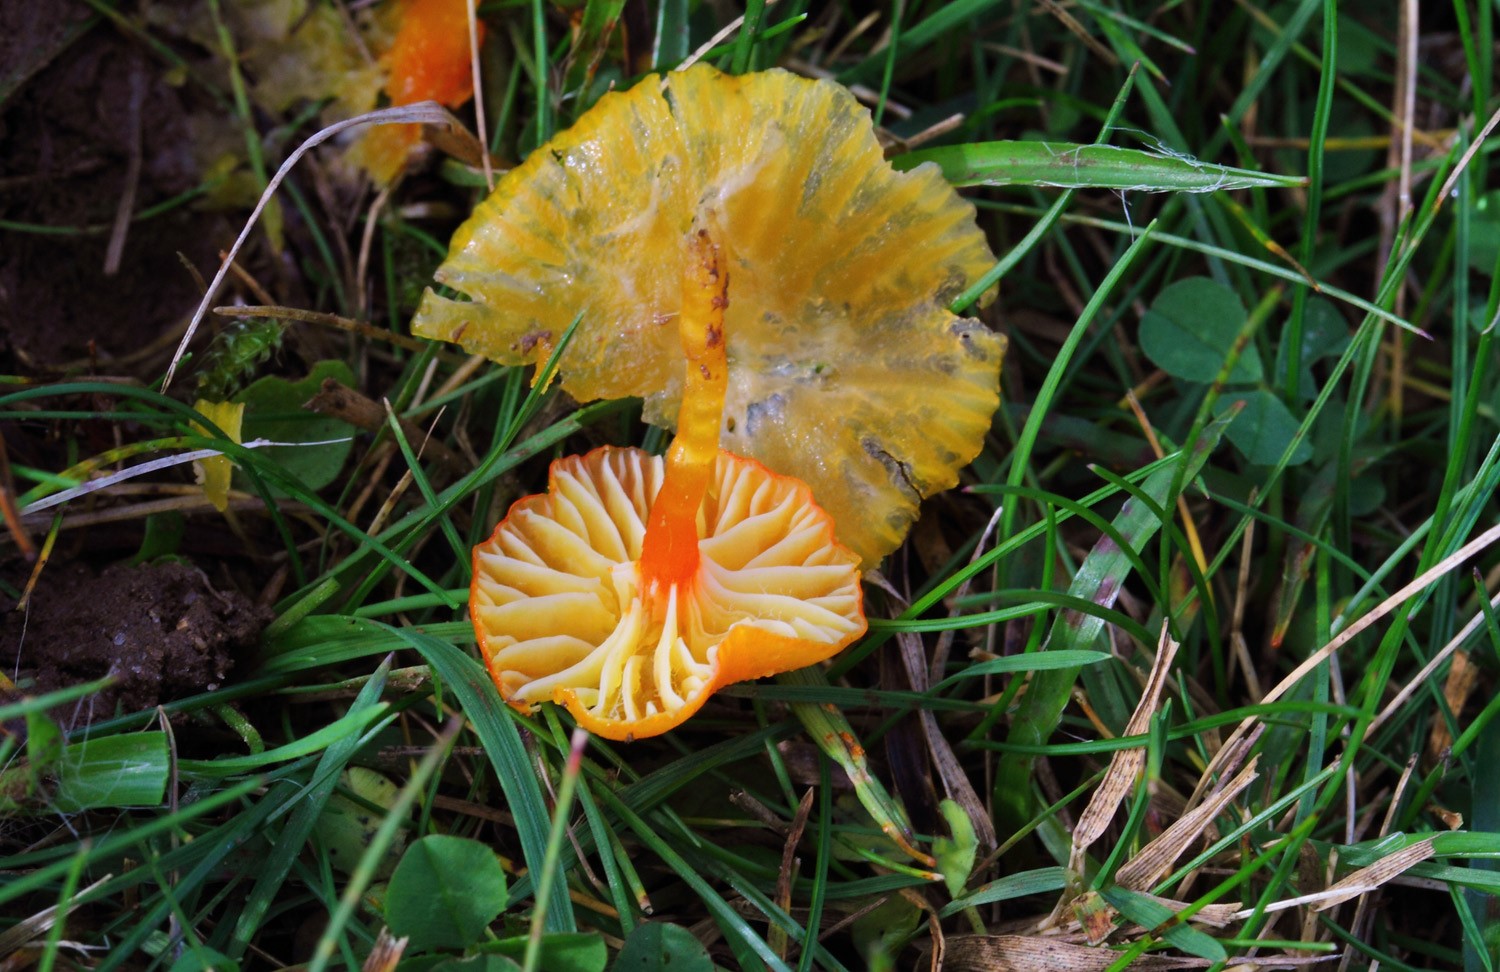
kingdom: Fungi
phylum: Basidiomycota
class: Agaricomycetes
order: Agaricales
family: Hygrophoraceae
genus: Hygrocybe
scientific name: Hygrocybe insipida
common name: liden vokshat
